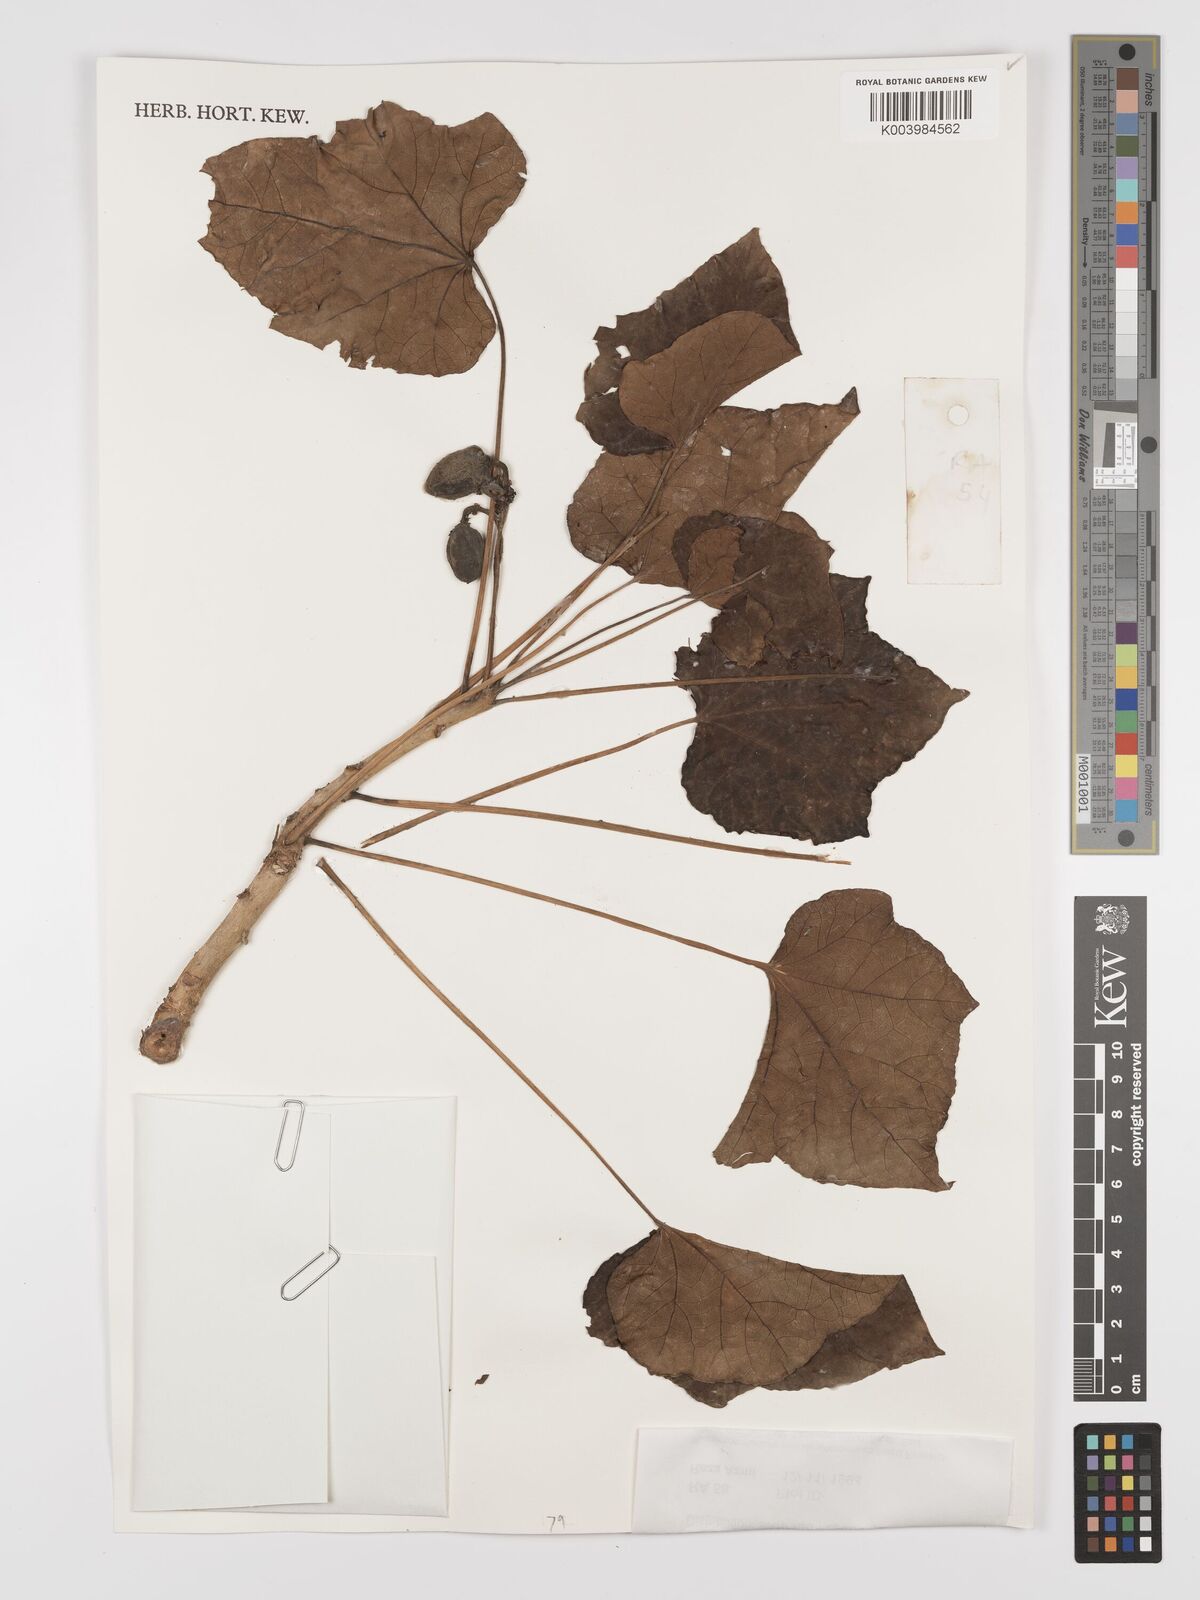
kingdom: Plantae
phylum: Tracheophyta
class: Magnoliopsida
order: Malpighiales
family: Euphorbiaceae
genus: Jatropha
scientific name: Jatropha curcas
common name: Barbados nut
